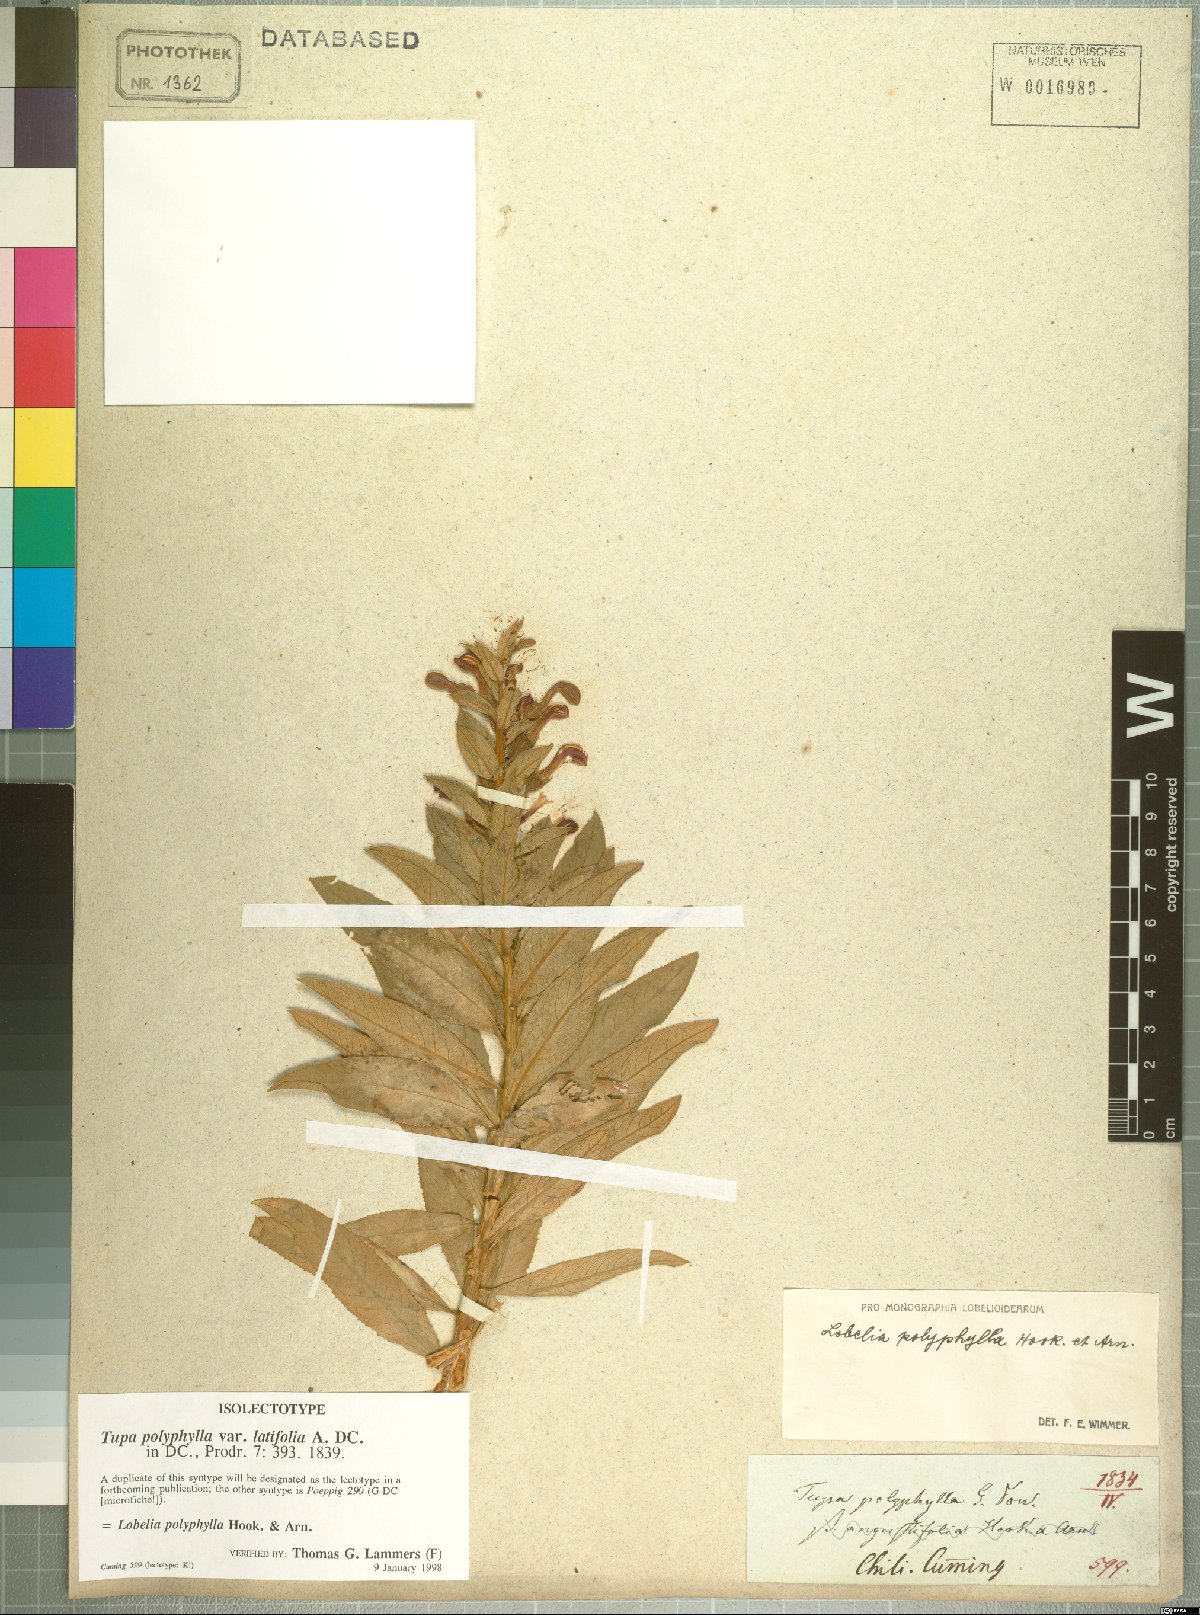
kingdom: Plantae
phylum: Tracheophyta
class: Magnoliopsida
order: Asterales
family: Campanulaceae
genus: Lobelia
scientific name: Lobelia polyphylla
